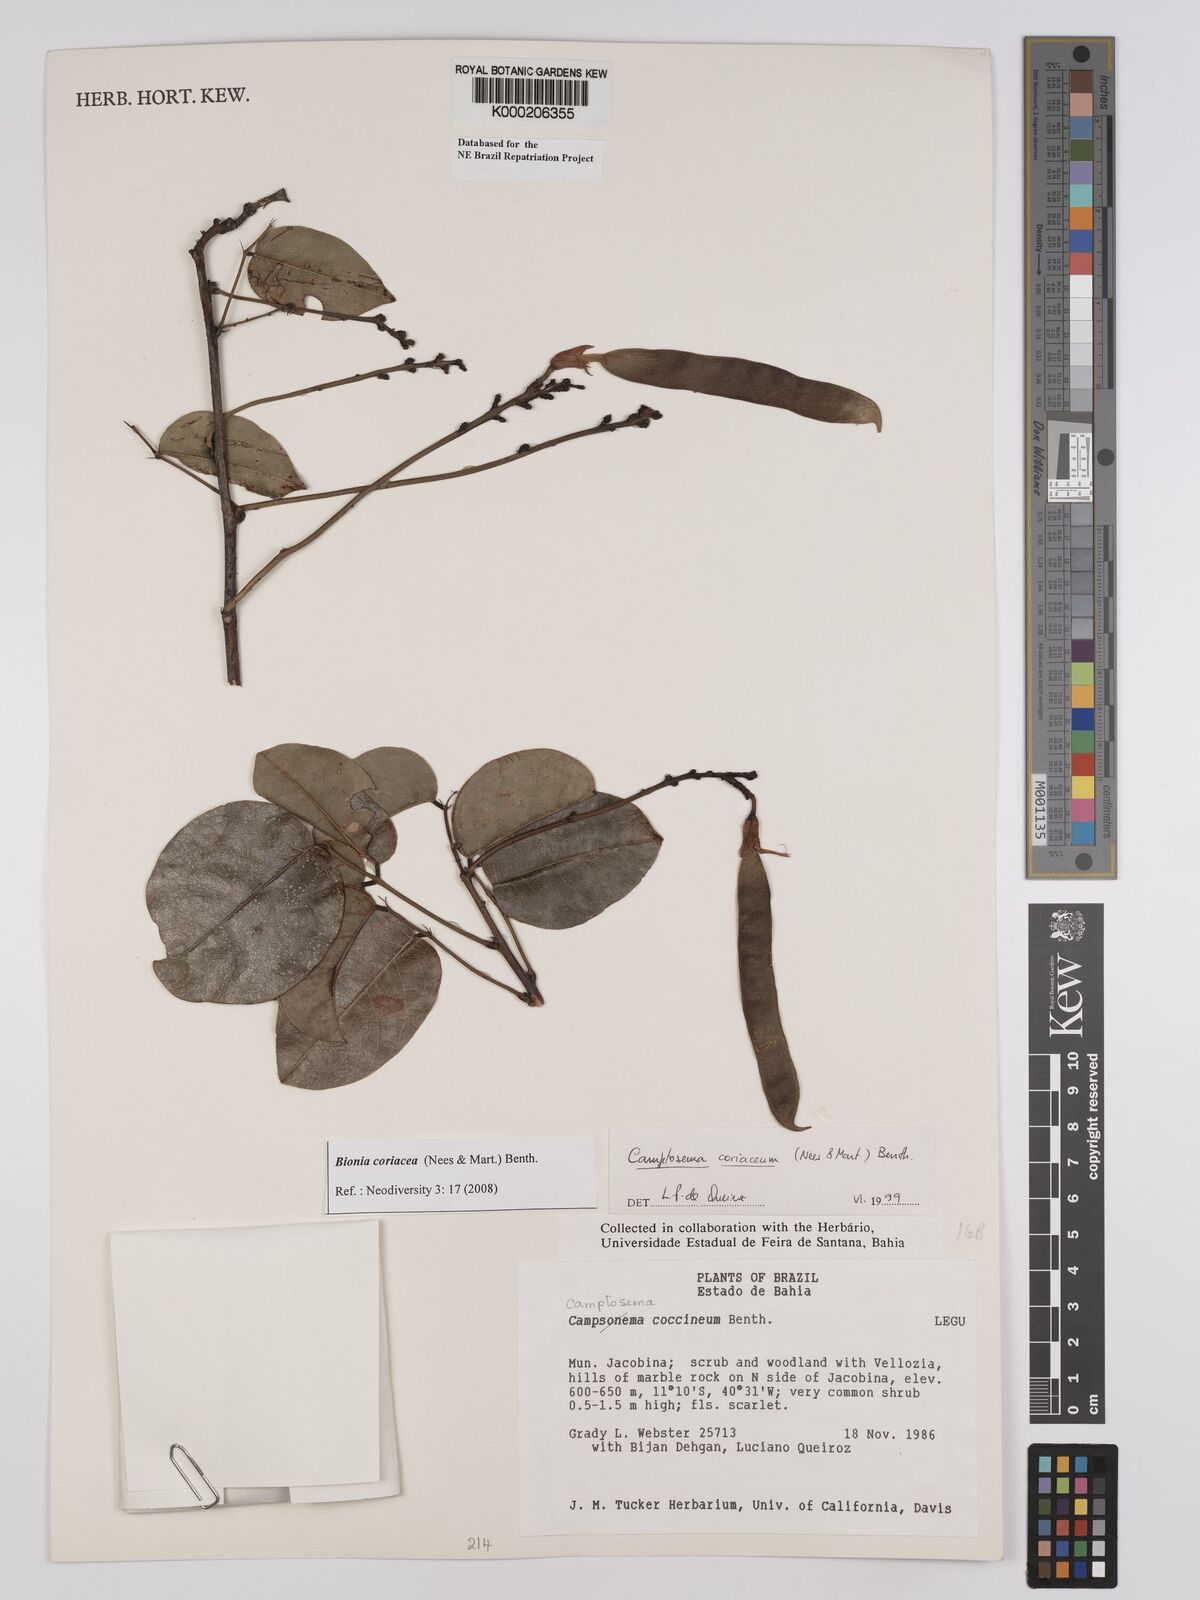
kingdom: Plantae
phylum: Tracheophyta
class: Magnoliopsida
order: Fabales
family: Fabaceae
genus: Camptosema
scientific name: Camptosema coriaceum
